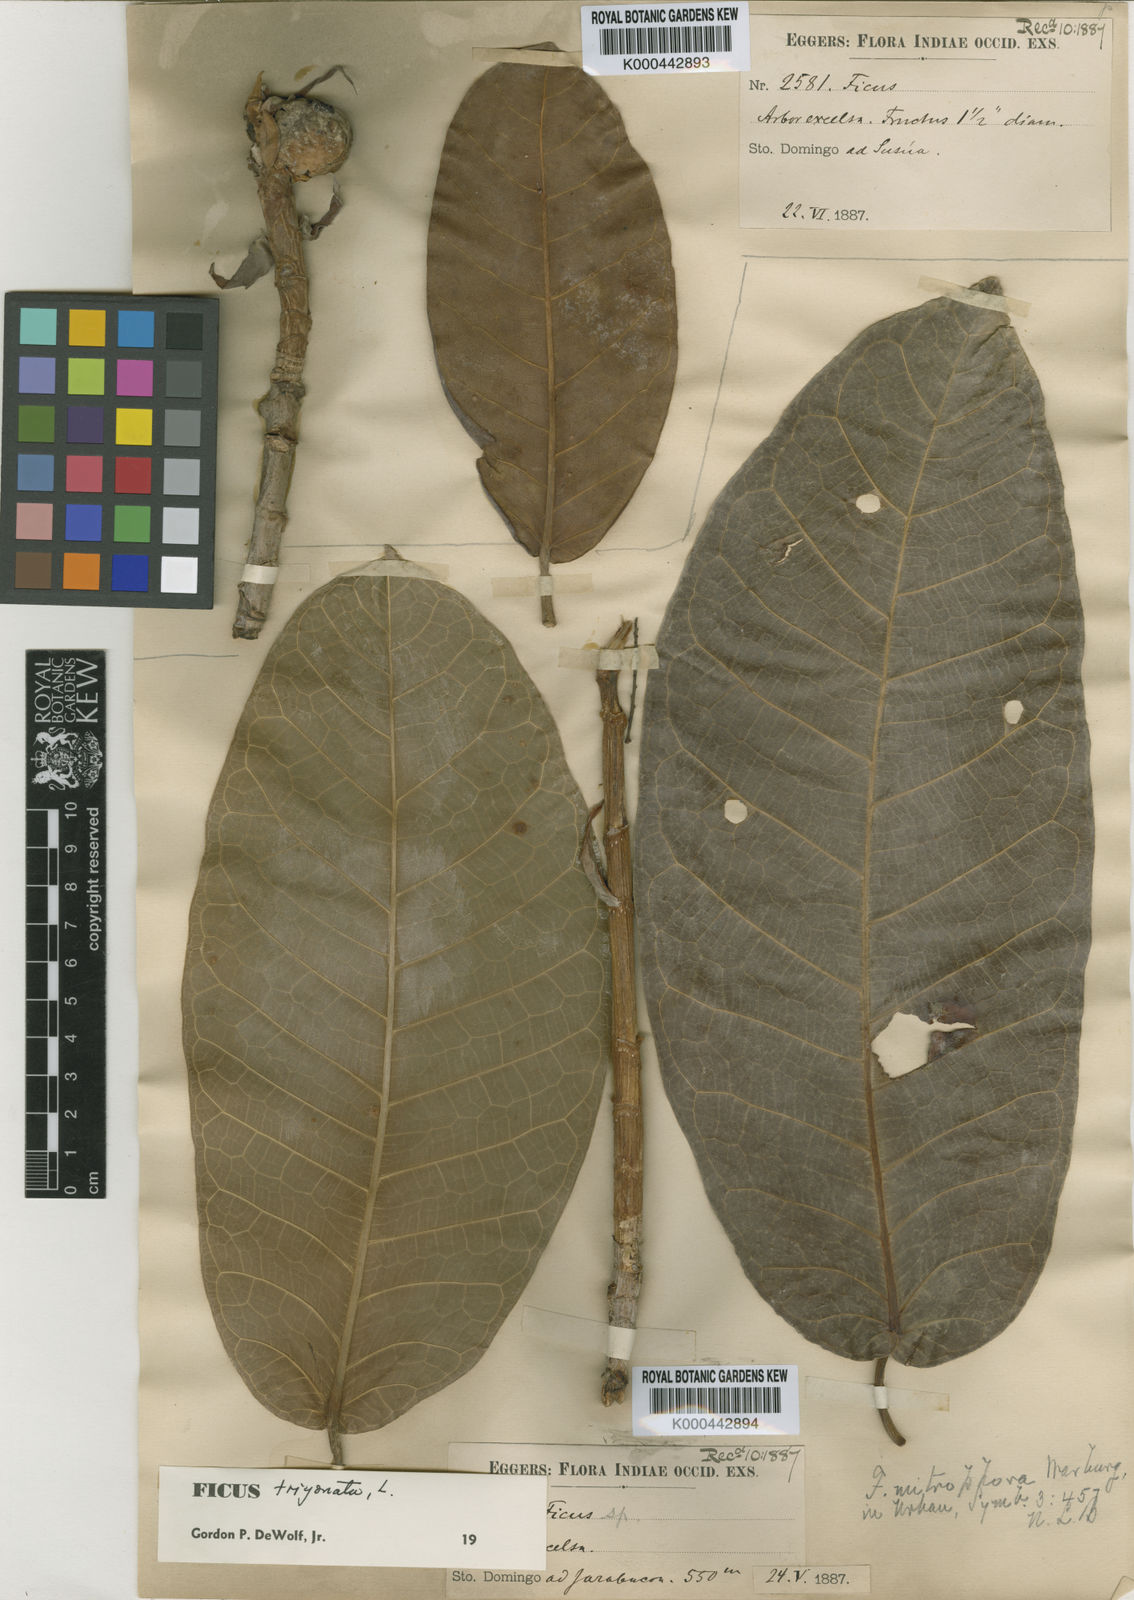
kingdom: Plantae
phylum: Tracheophyta
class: Magnoliopsida
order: Rosales
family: Moraceae
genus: Ficus
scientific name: Ficus trigonata
